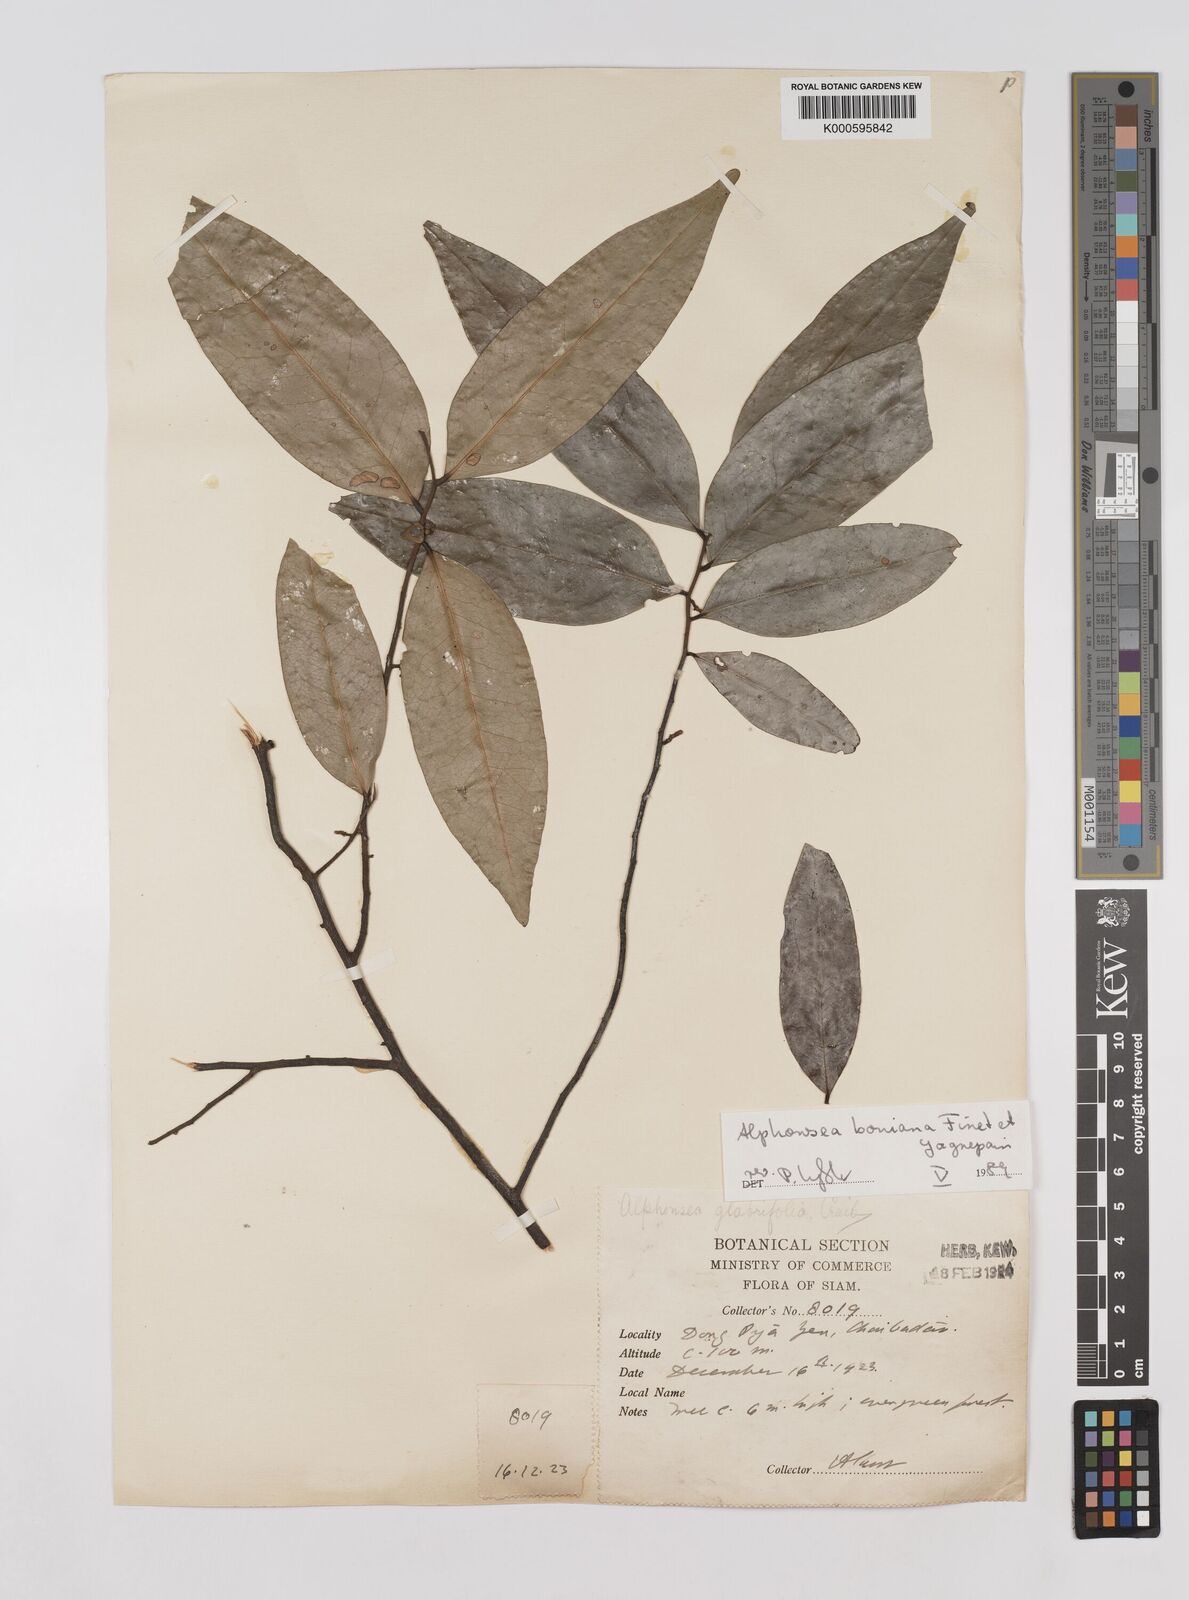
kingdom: Plantae
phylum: Tracheophyta
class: Magnoliopsida
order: Magnoliales
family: Annonaceae
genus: Alphonsea
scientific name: Alphonsea boniana
